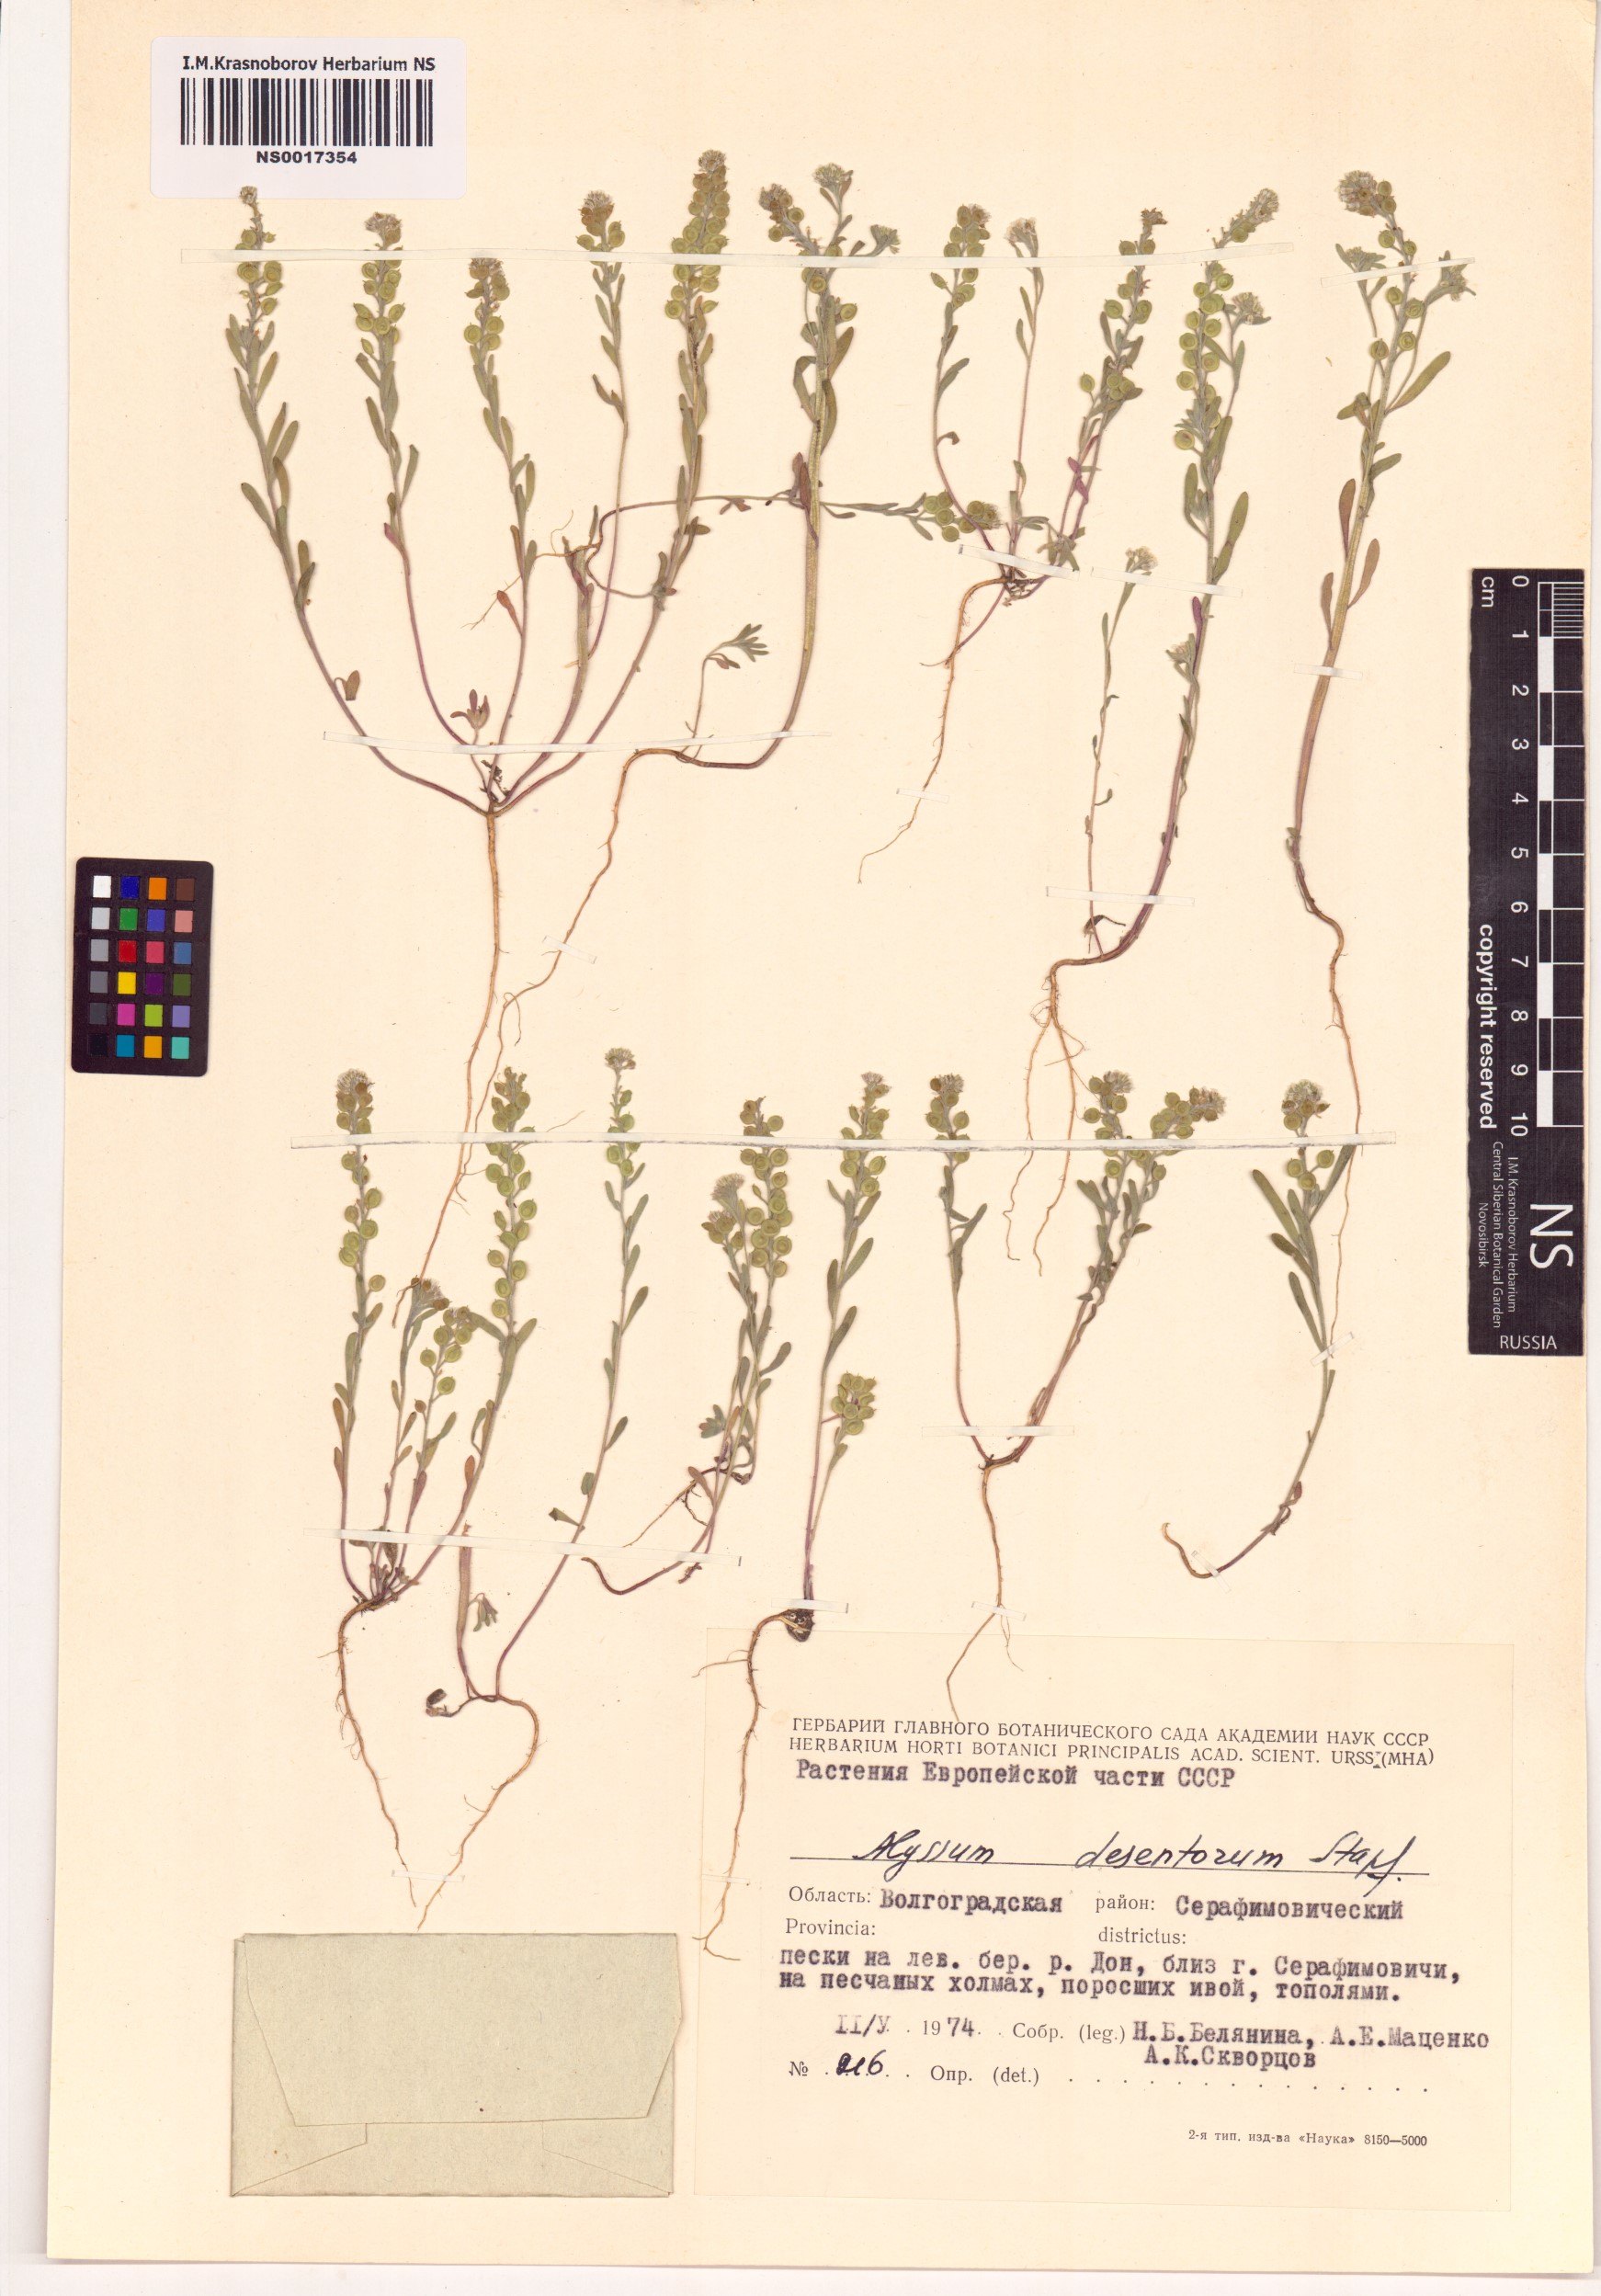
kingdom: Plantae
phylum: Tracheophyta
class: Magnoliopsida
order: Brassicales
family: Brassicaceae
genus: Alyssum
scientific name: Alyssum turkestanicum
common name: Desert alyssum
